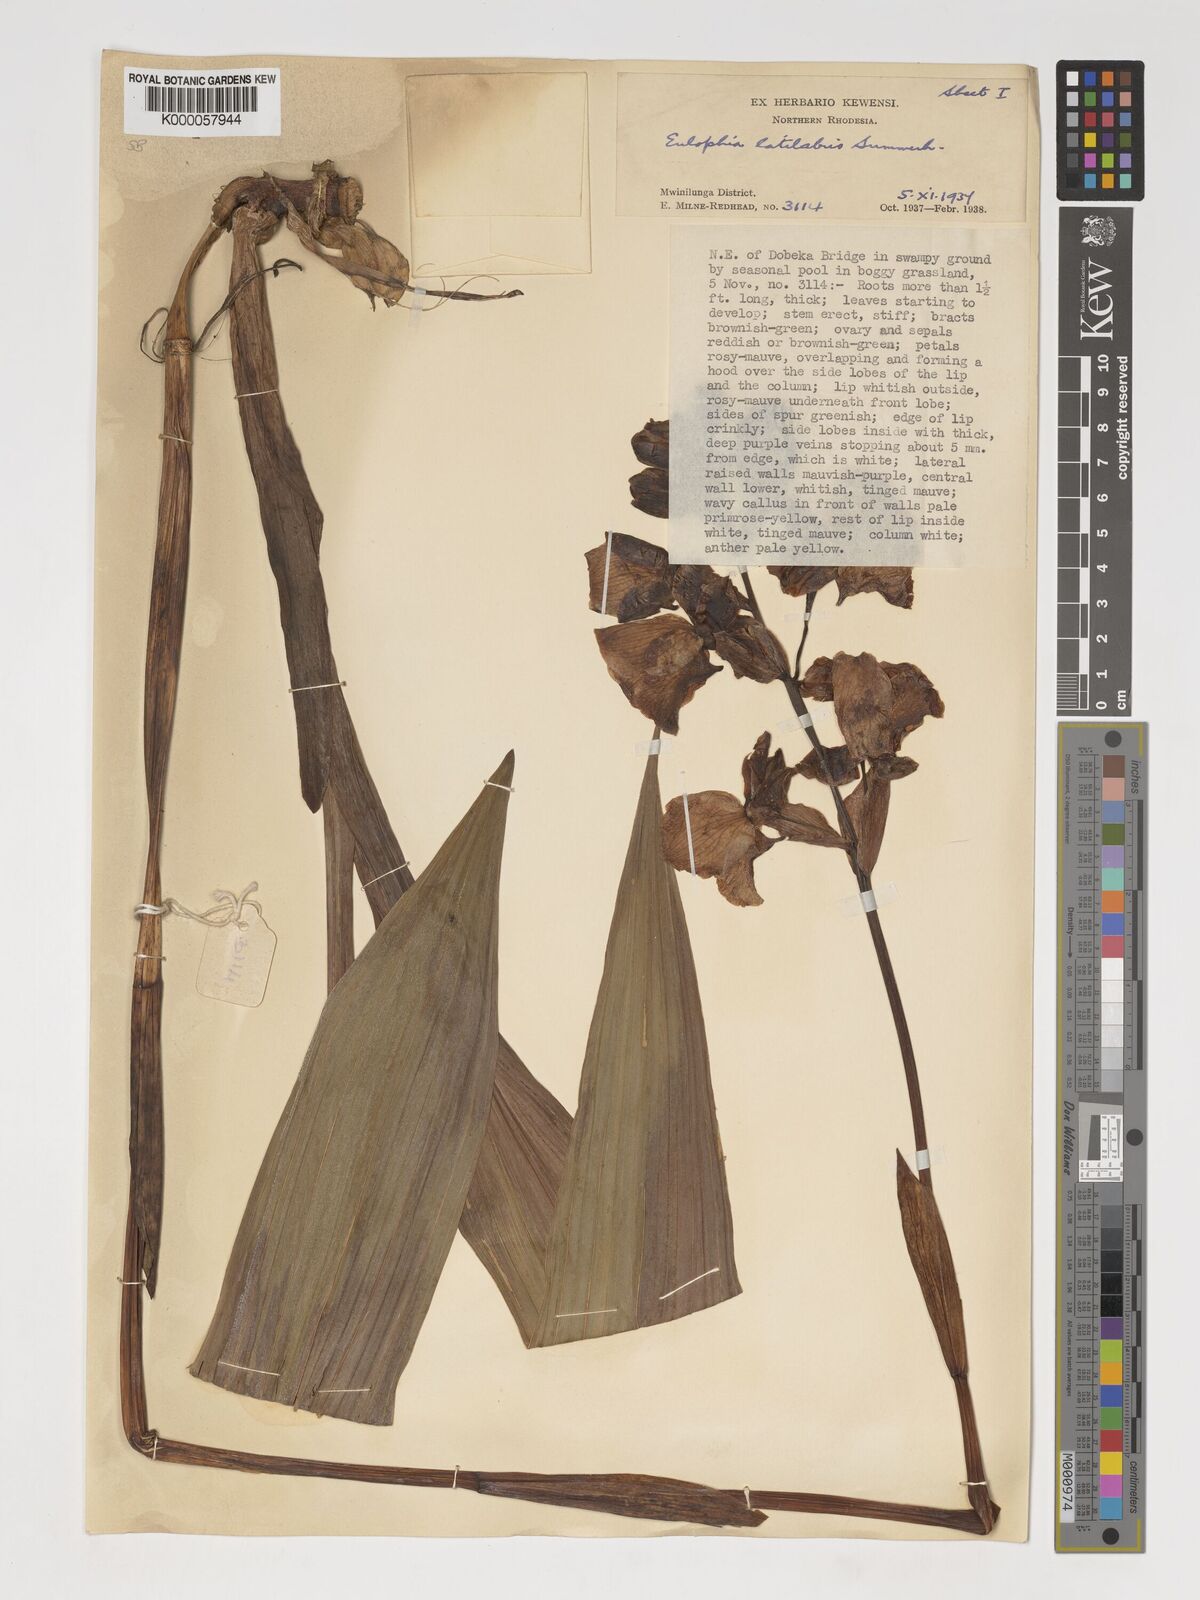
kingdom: Plantae
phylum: Tracheophyta
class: Liliopsida
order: Asparagales
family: Orchidaceae
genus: Eulophia
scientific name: Eulophia latilabris
